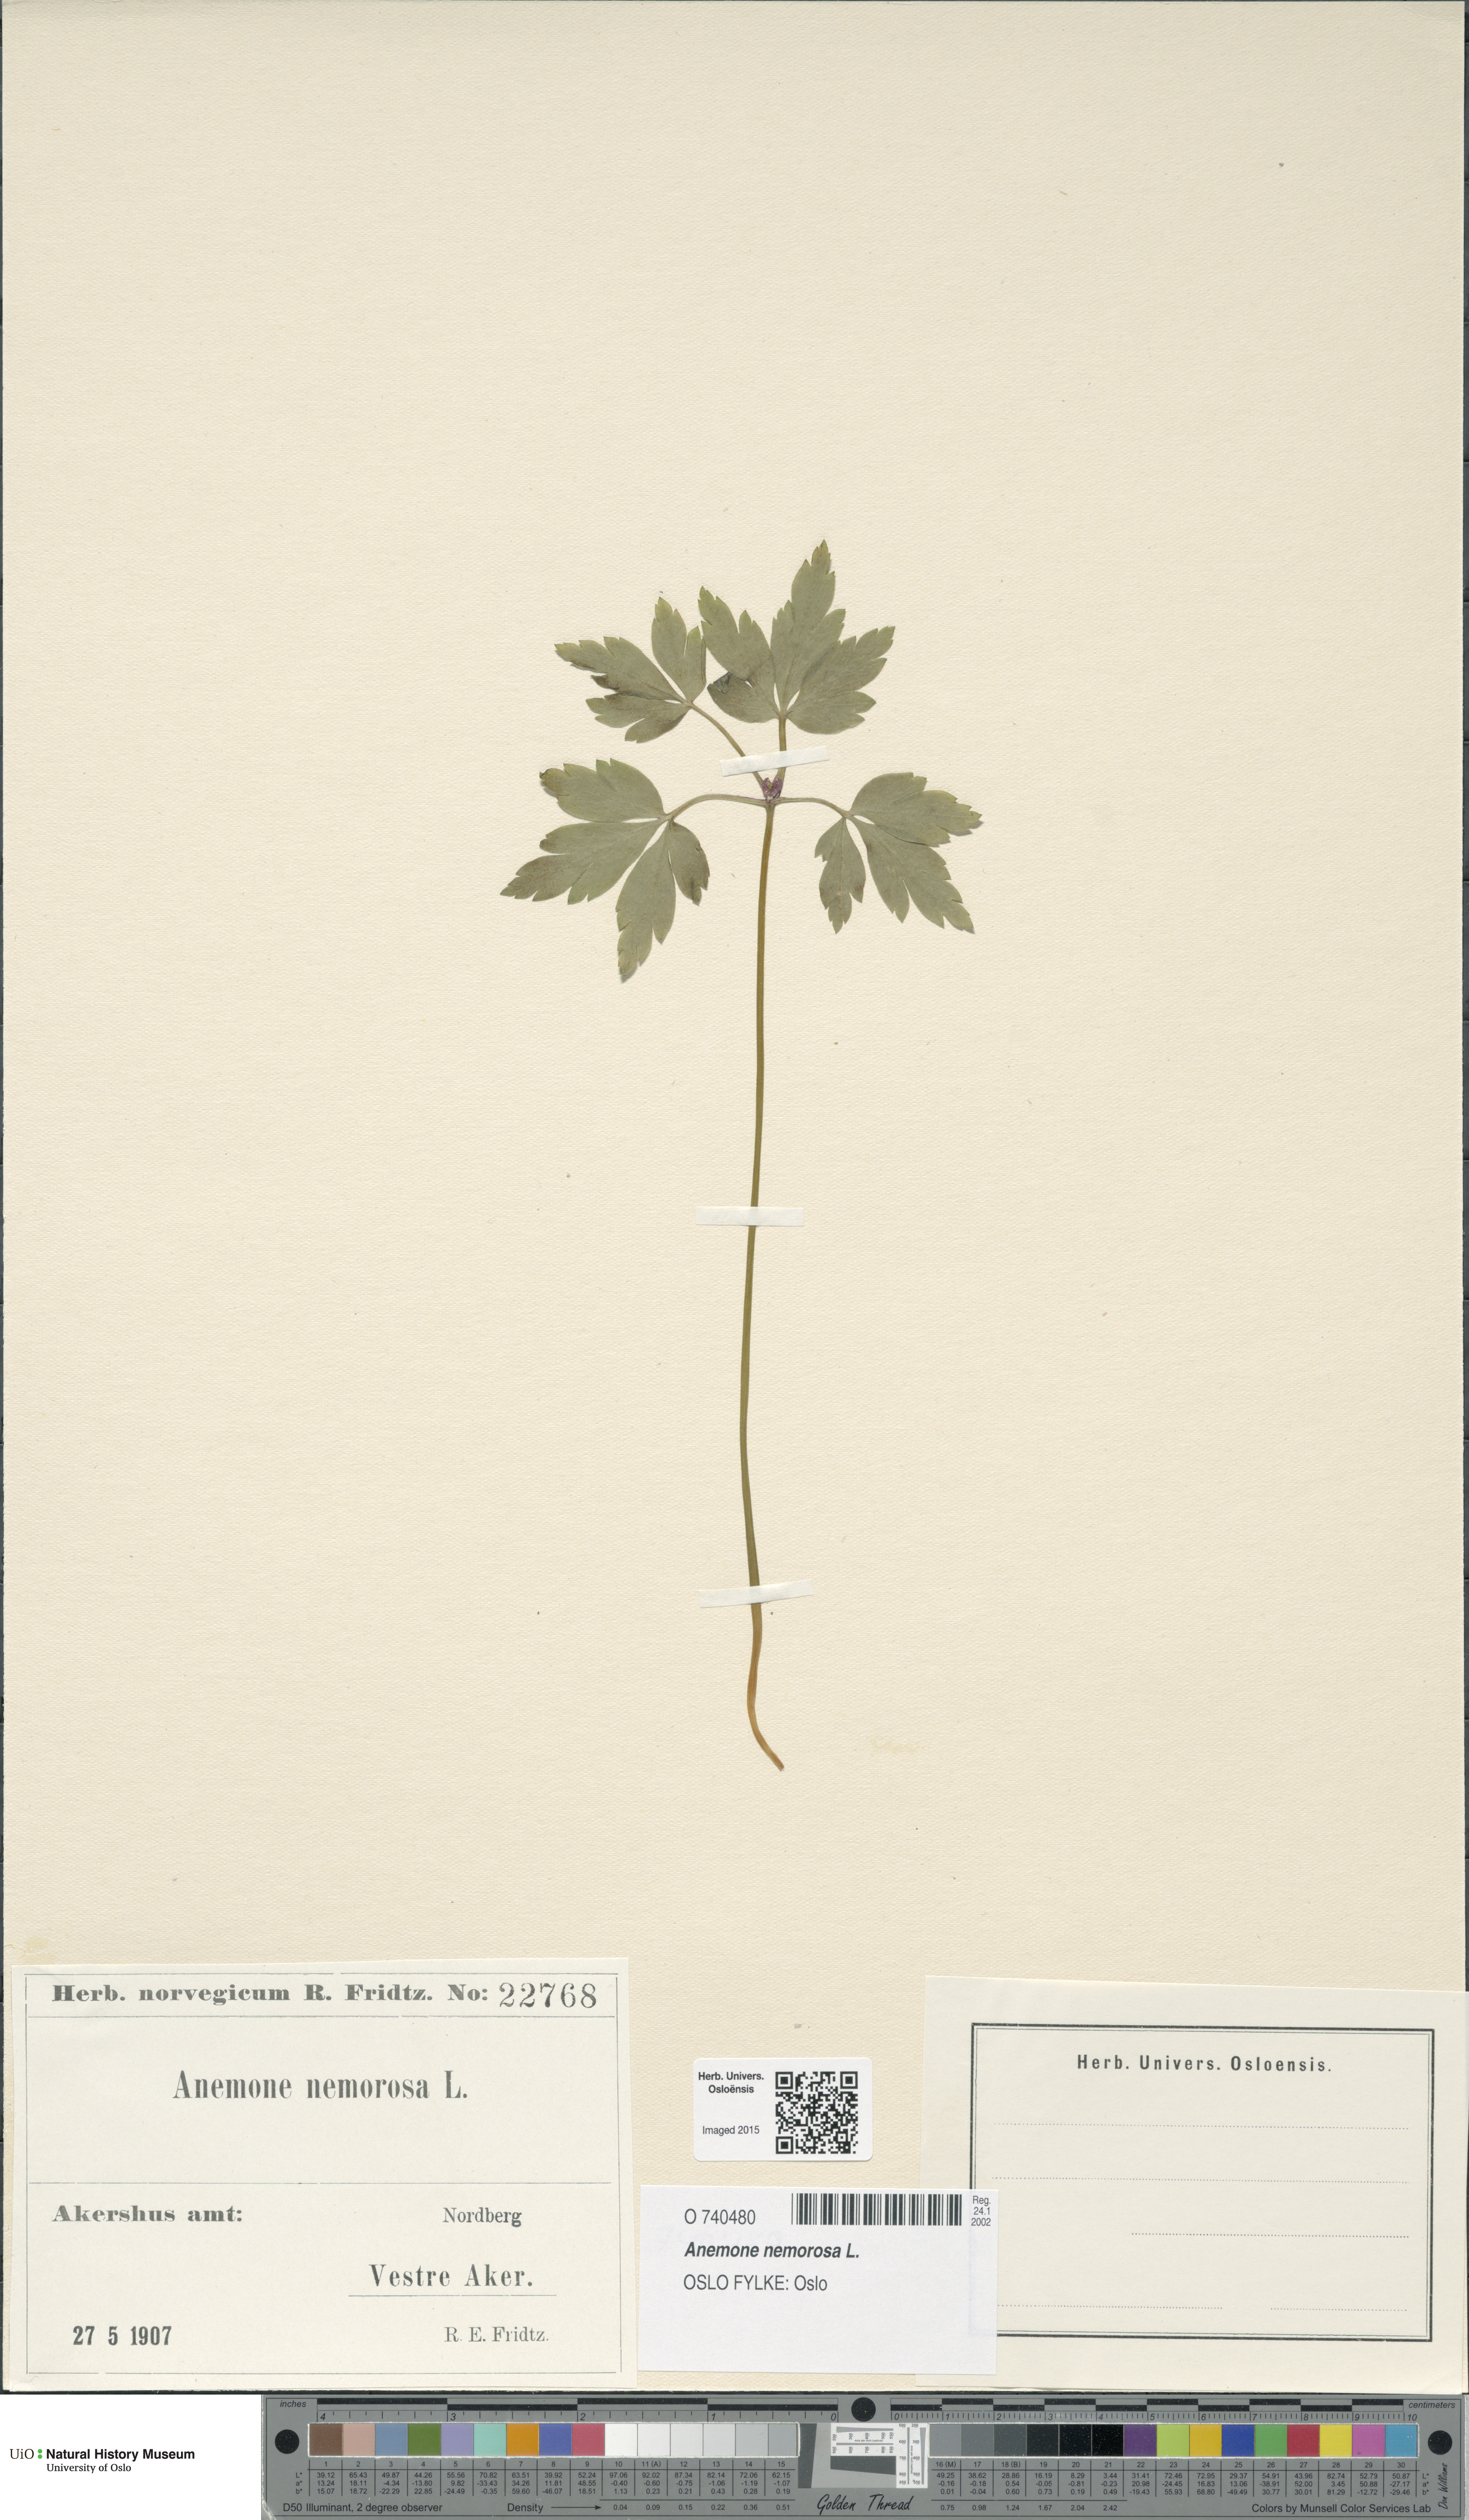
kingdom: Plantae
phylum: Tracheophyta
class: Magnoliopsida
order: Ranunculales
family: Ranunculaceae
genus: Anemone
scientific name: Anemone nemorosa
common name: Wood anemone
